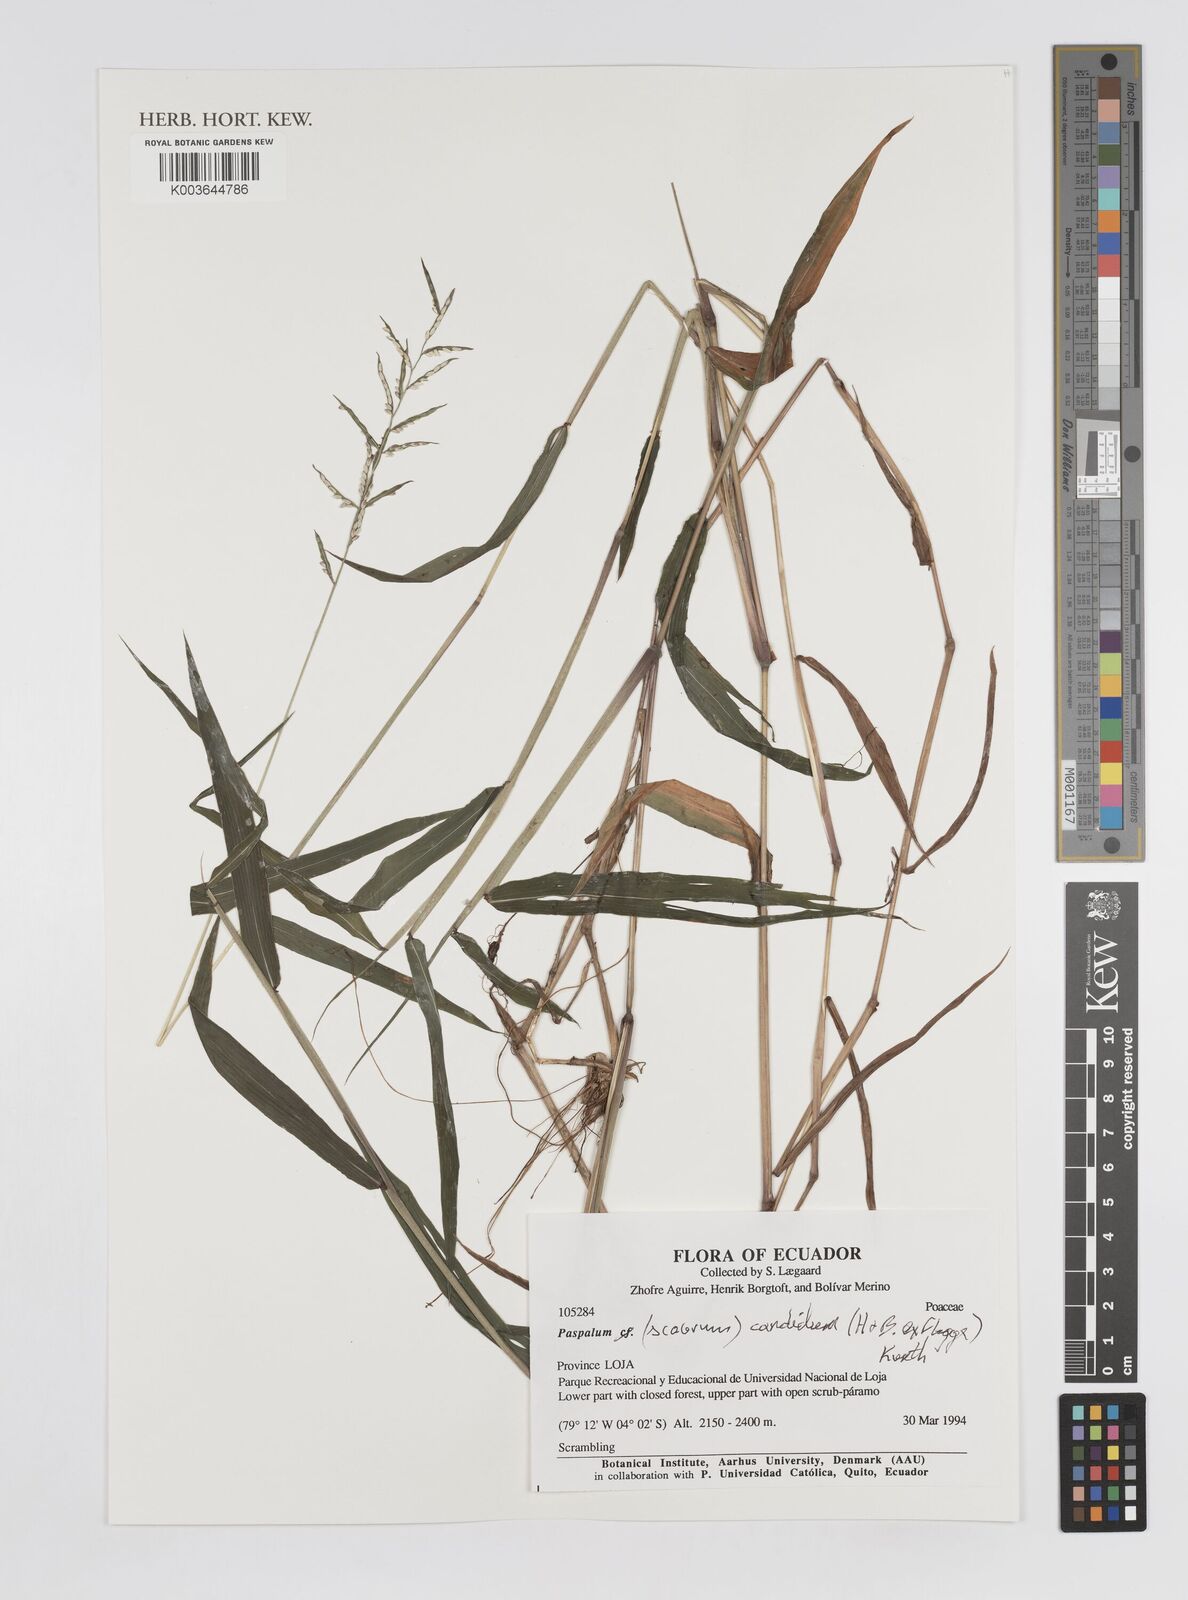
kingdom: Plantae
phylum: Tracheophyta
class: Liliopsida
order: Poales
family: Poaceae
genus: Paspalum
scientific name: Paspalum candidum
